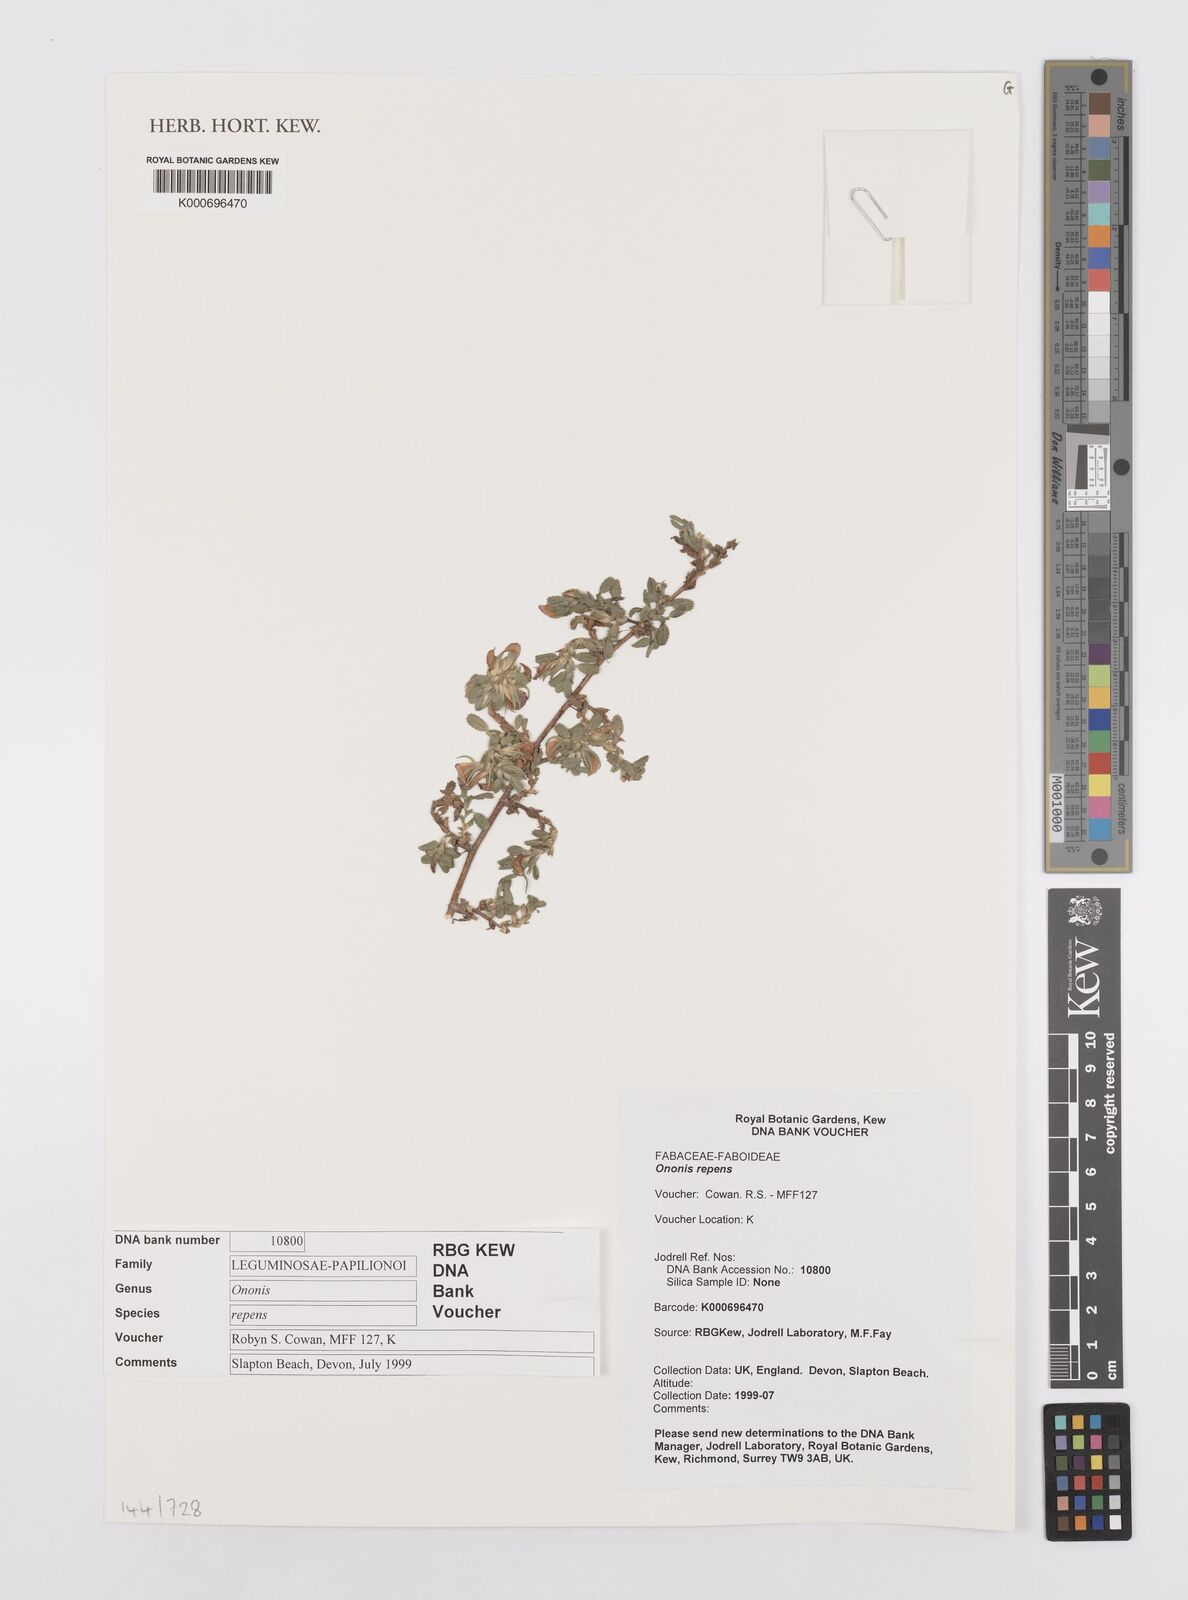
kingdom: Plantae
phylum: Tracheophyta
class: Magnoliopsida
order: Fabales
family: Fabaceae
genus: Ononis
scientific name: Ononis spinosa
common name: Spiny restharrow
